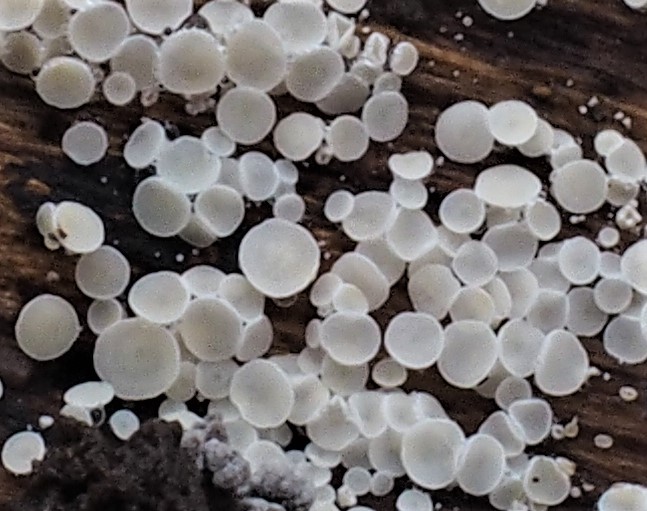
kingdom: Fungi
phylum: Ascomycota
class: Leotiomycetes
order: Helotiales
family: Lachnaceae
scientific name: Lachnaceae
